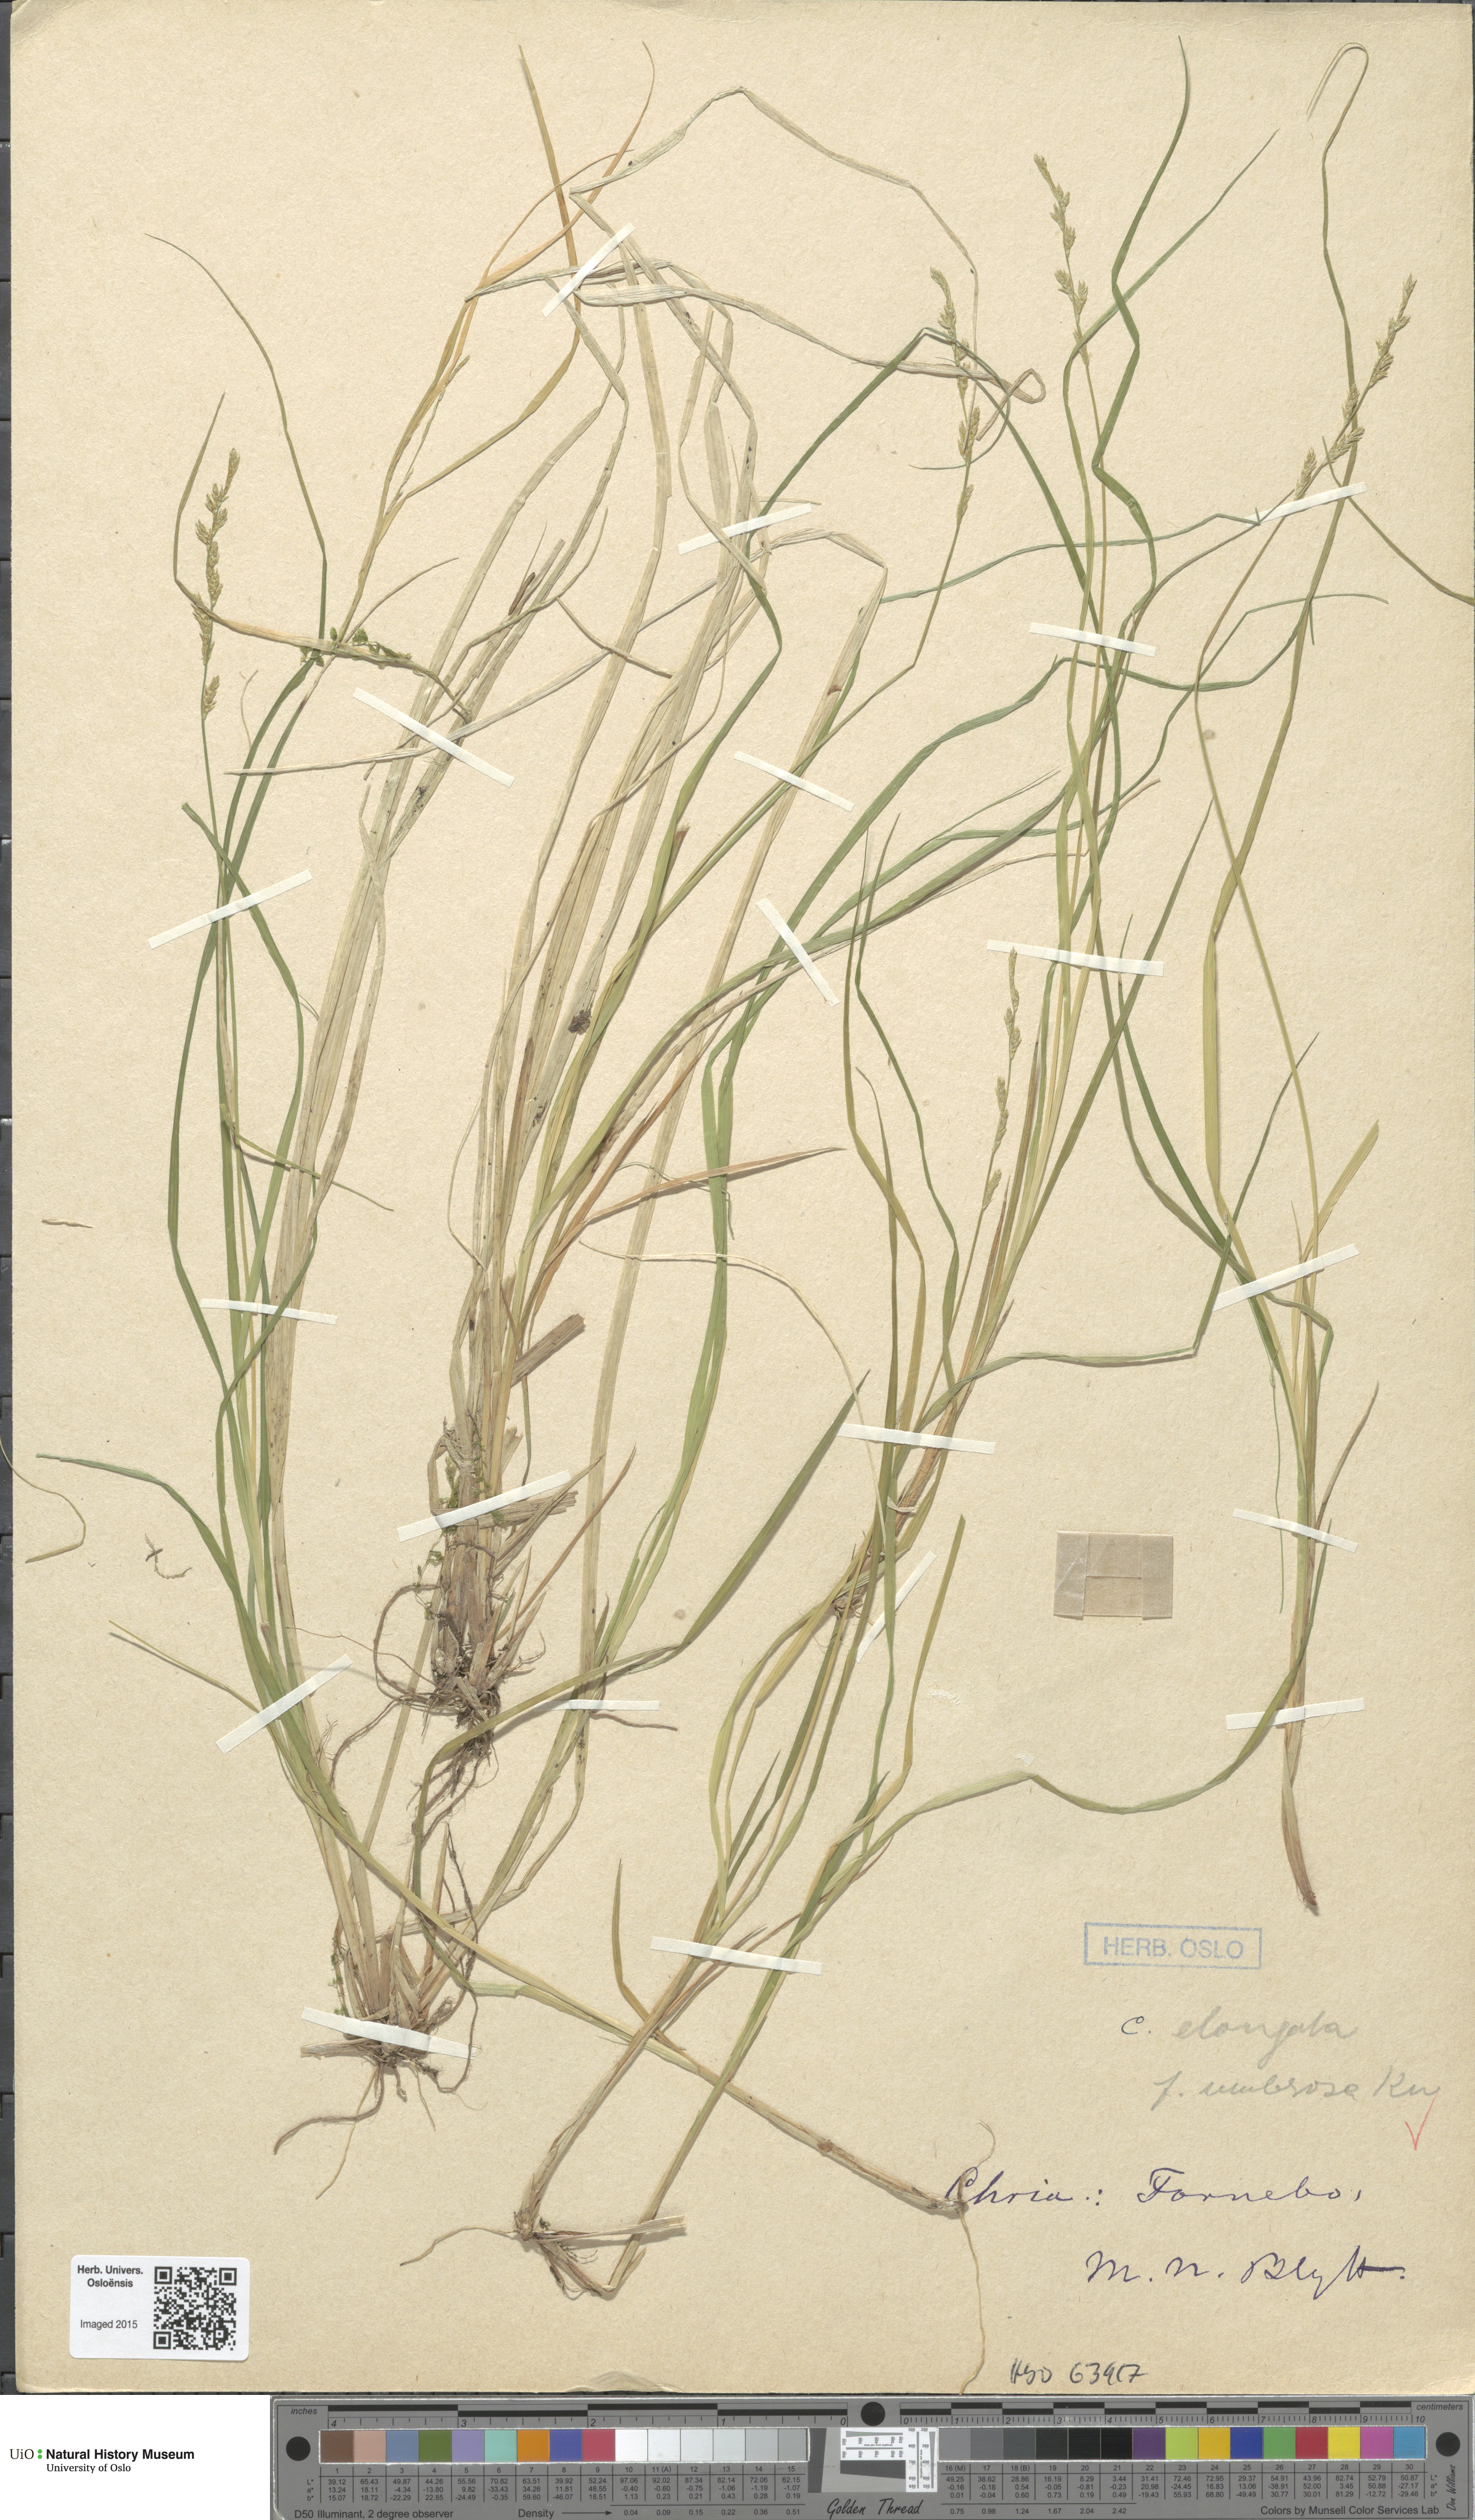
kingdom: Plantae
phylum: Tracheophyta
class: Liliopsida
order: Poales
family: Cyperaceae
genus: Carex
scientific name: Carex elongata
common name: Elongated sedge
